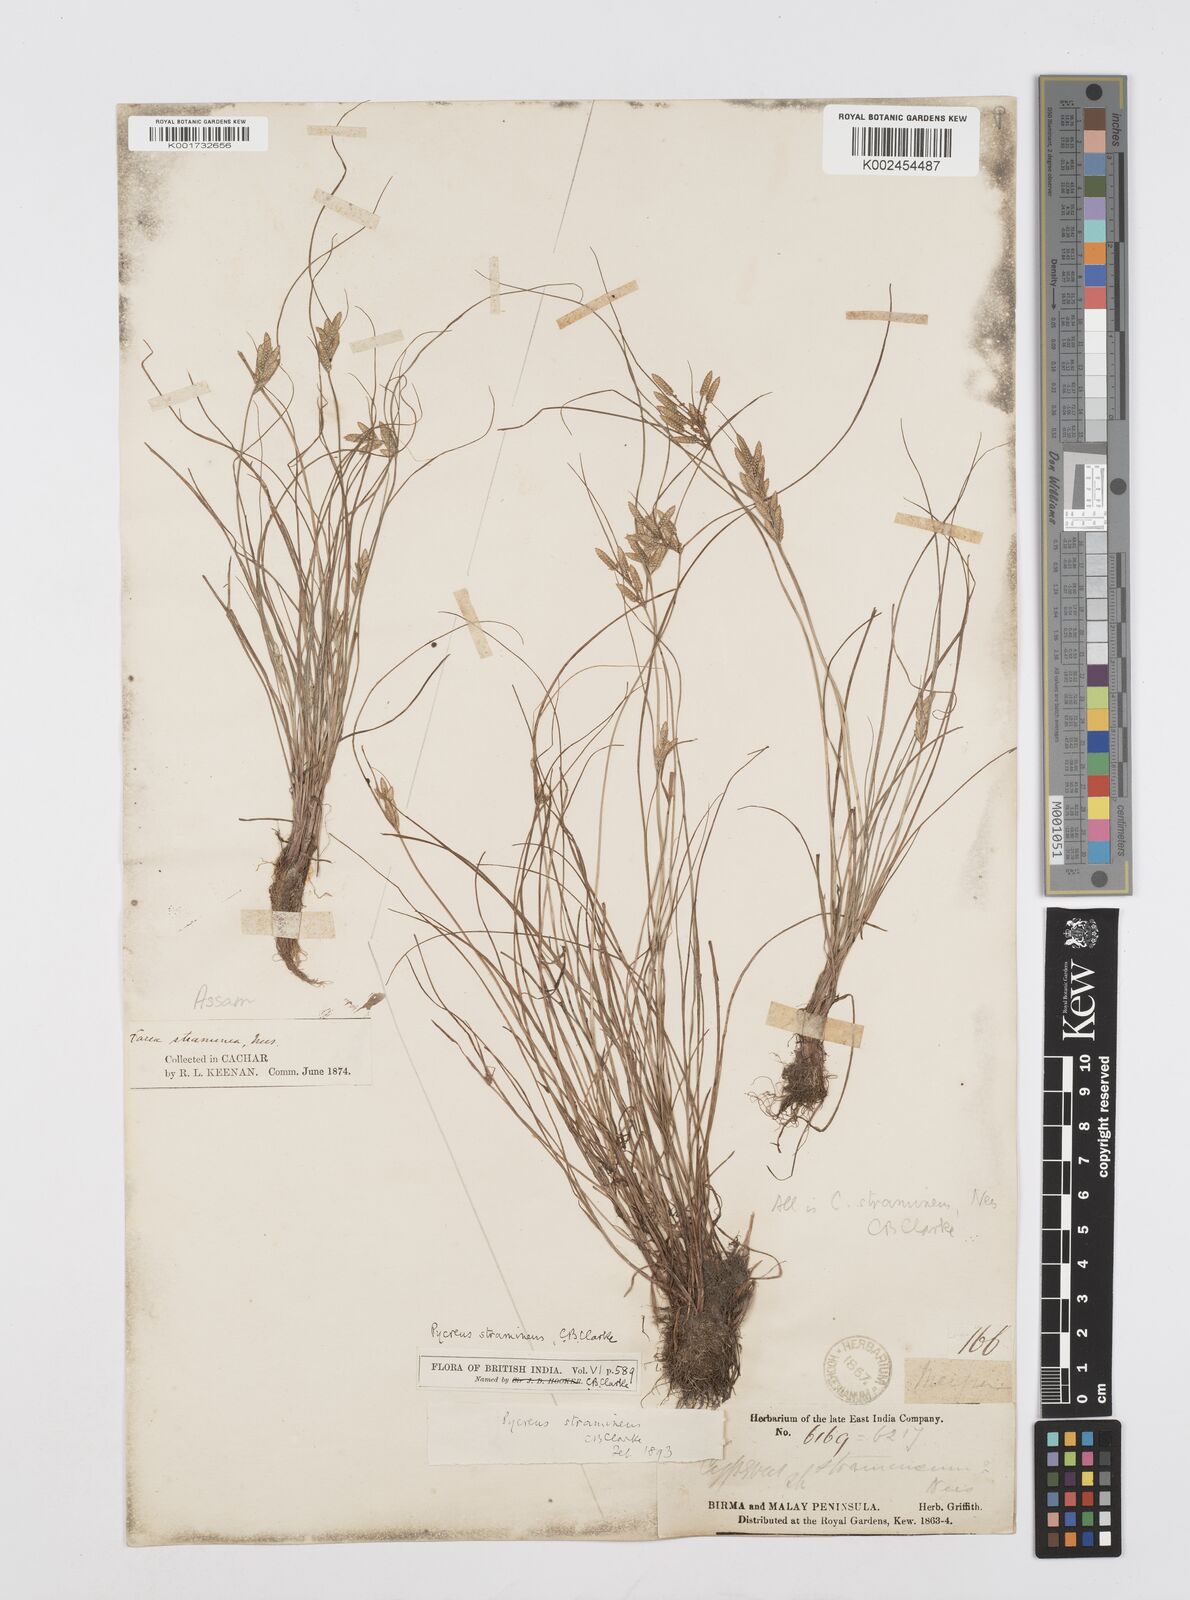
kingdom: Plantae
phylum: Tracheophyta
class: Liliopsida
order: Poales
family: Cyperaceae
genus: Cyperus
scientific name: Cyperus substramineus
